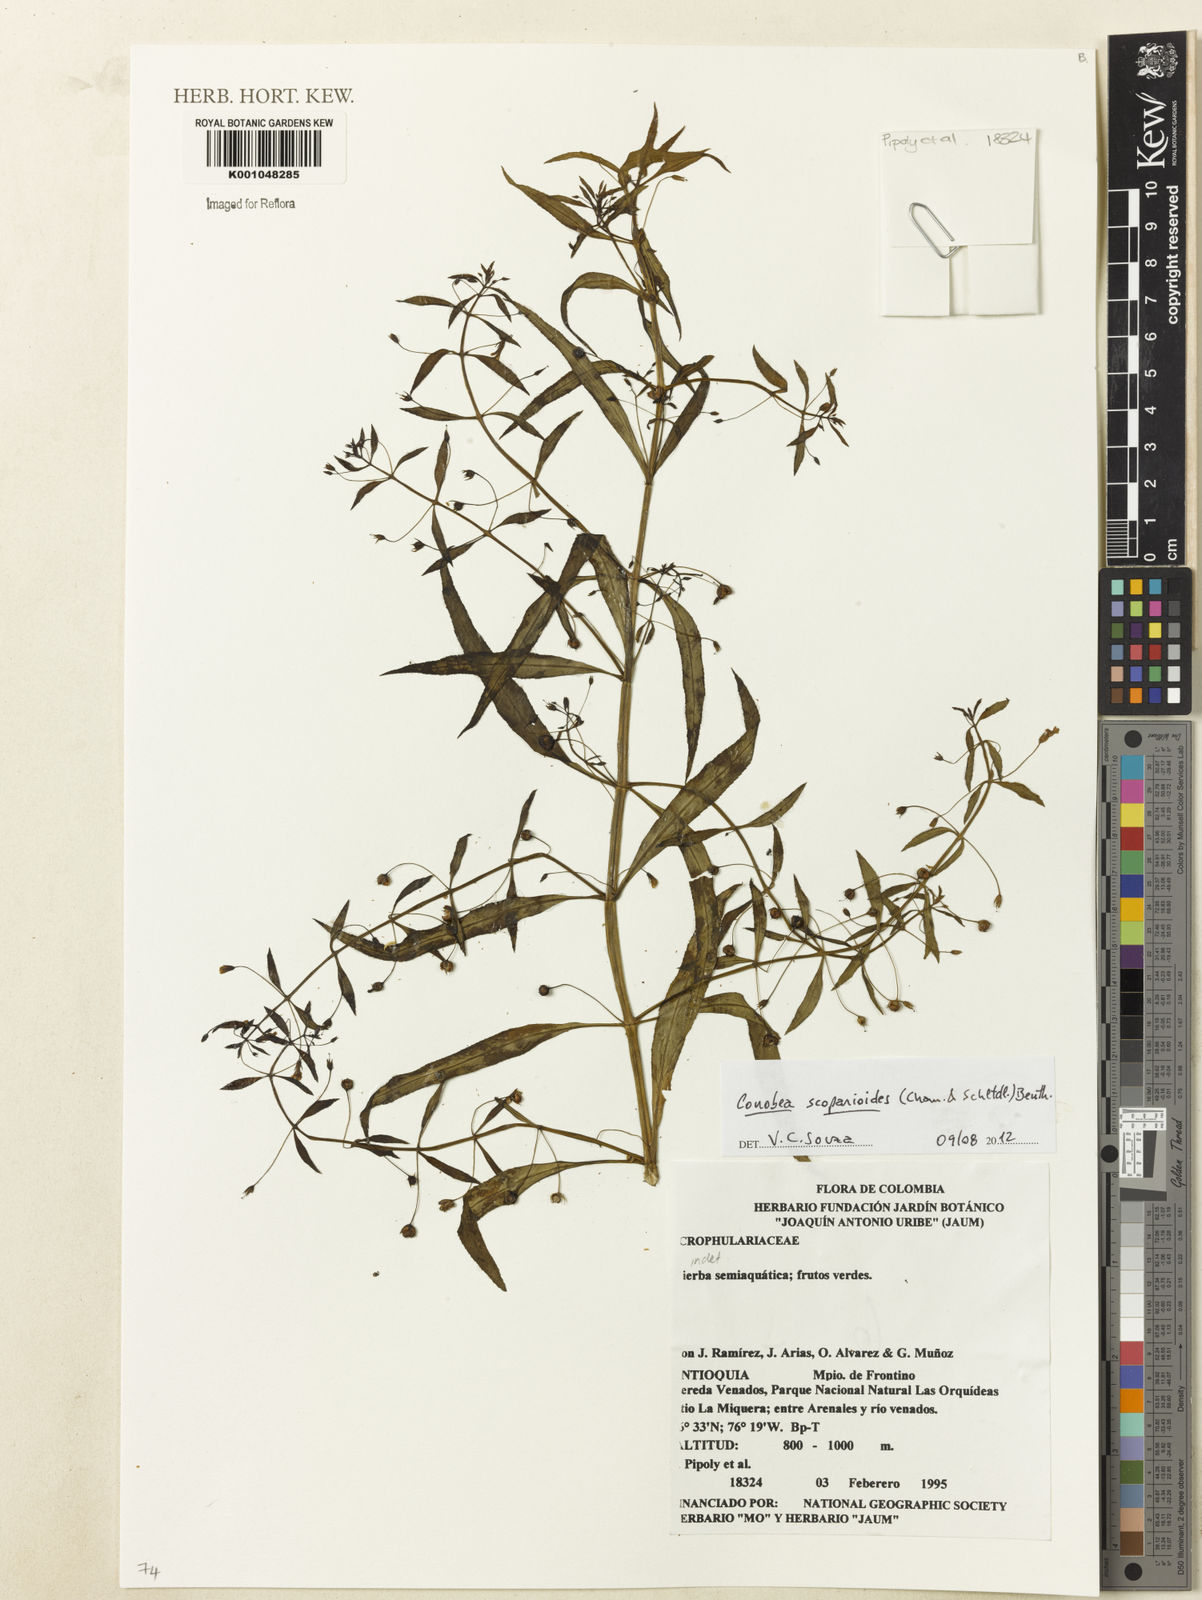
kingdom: Plantae
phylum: Tracheophyta
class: Magnoliopsida
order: Lamiales
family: Plantaginaceae
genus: Conobea
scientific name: Conobea scoparioides
